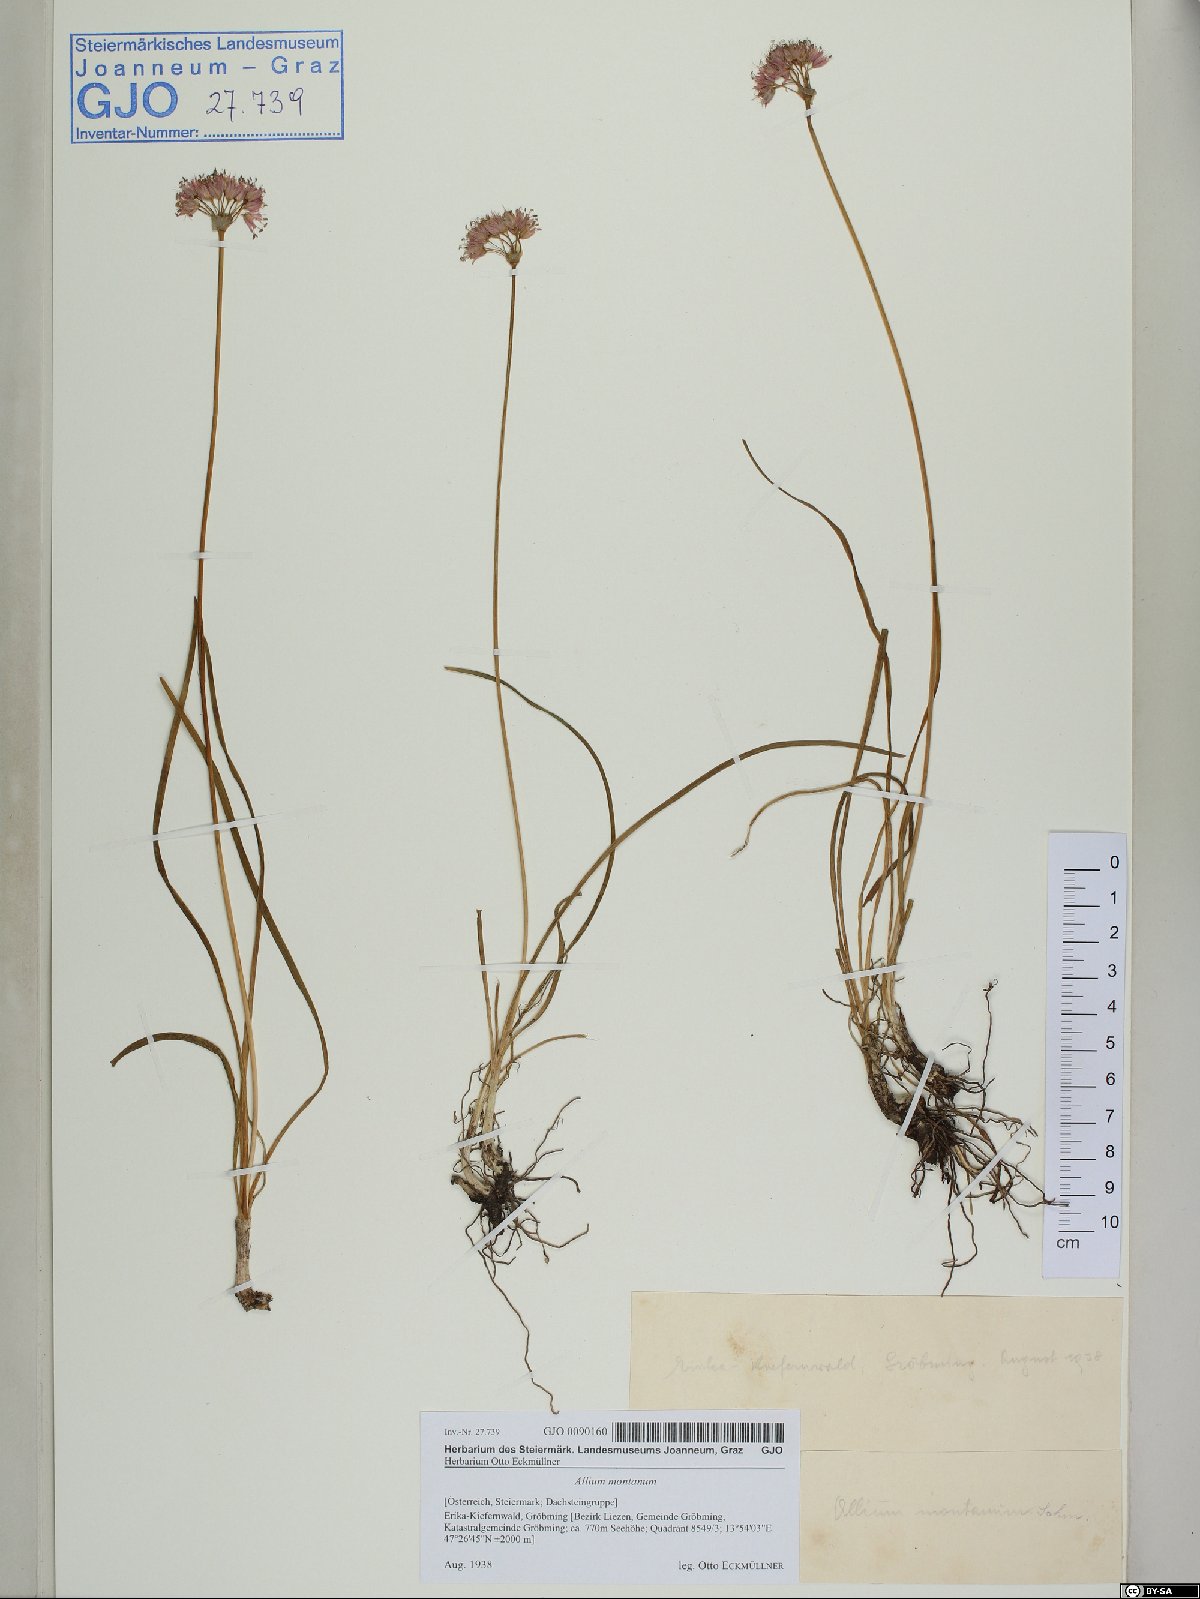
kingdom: Plantae
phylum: Tracheophyta
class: Liliopsida
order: Asparagales
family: Amaryllidaceae
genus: Allium
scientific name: Allium lusitanicum
